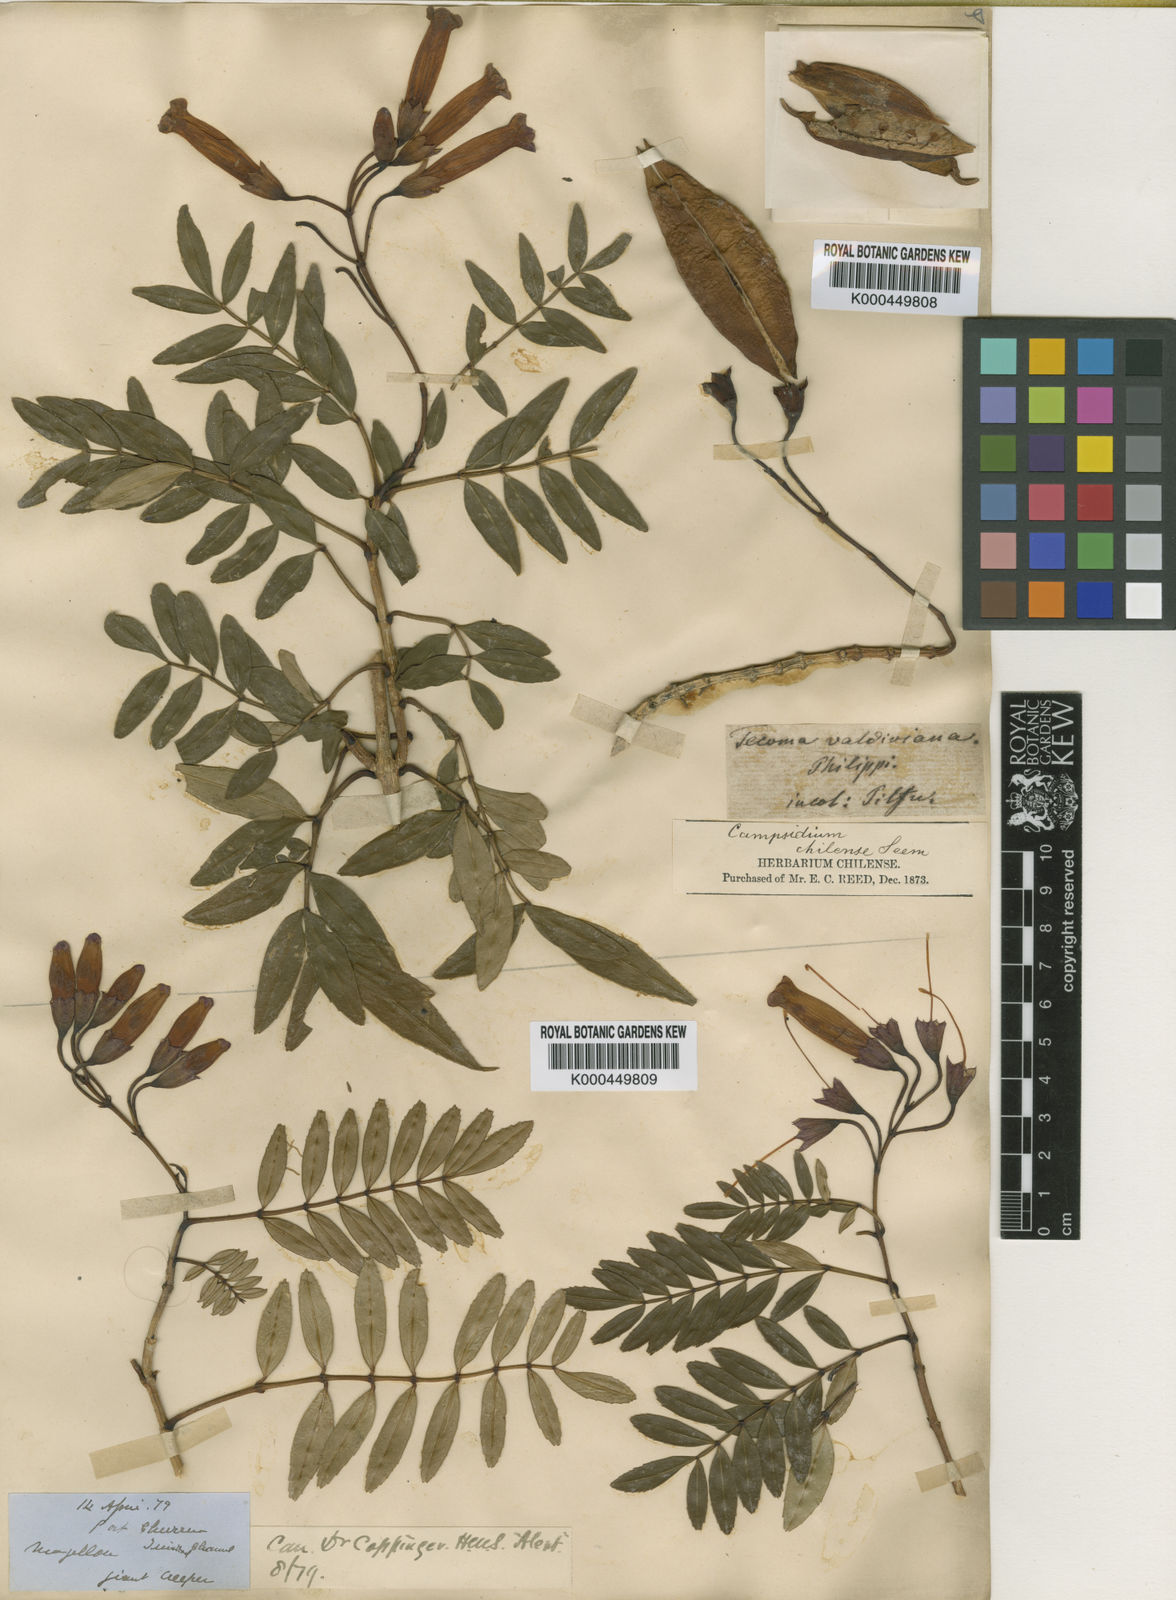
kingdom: Plantae
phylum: Tracheophyta
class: Magnoliopsida
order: Lamiales
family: Bignoniaceae
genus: Campsidium
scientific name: Campsidium valdivianum
